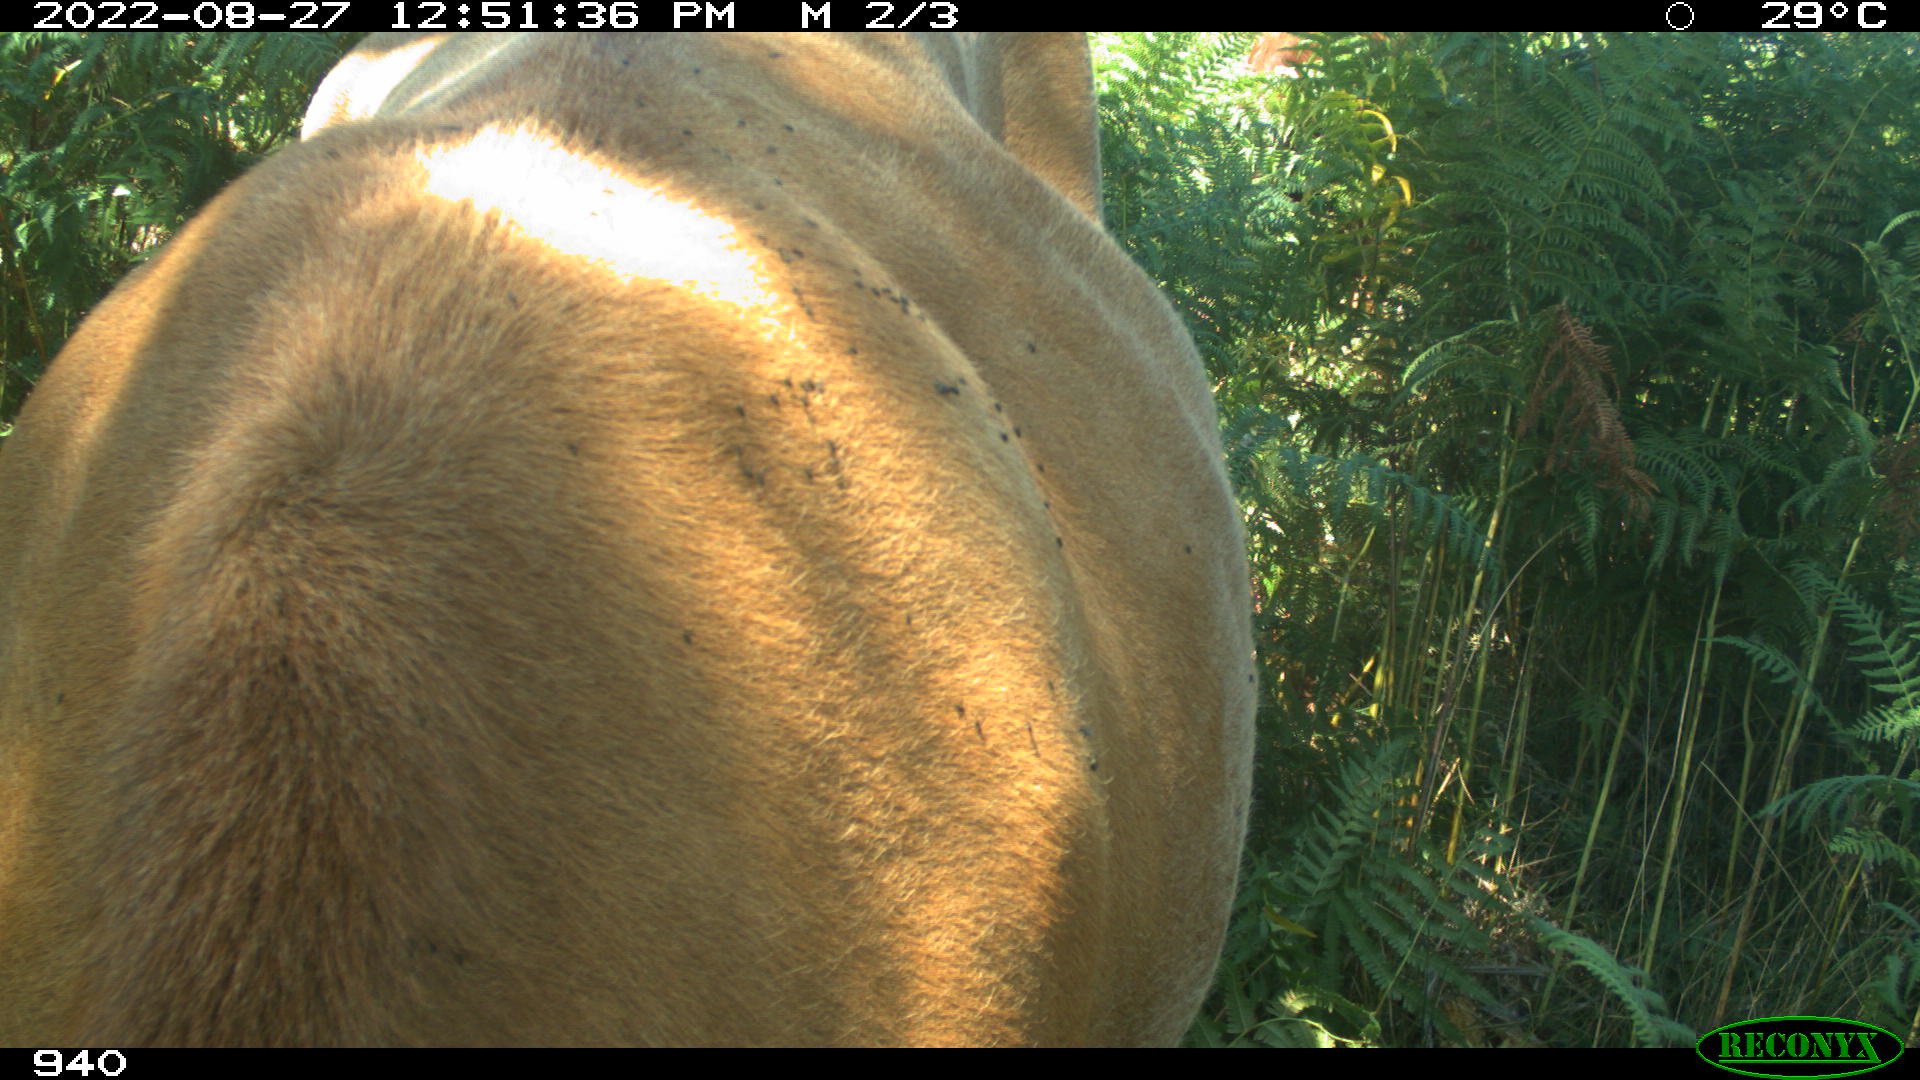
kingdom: Animalia
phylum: Chordata
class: Mammalia
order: Artiodactyla
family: Bovidae
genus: Bos
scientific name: Bos taurus
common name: Domesticated cattle
